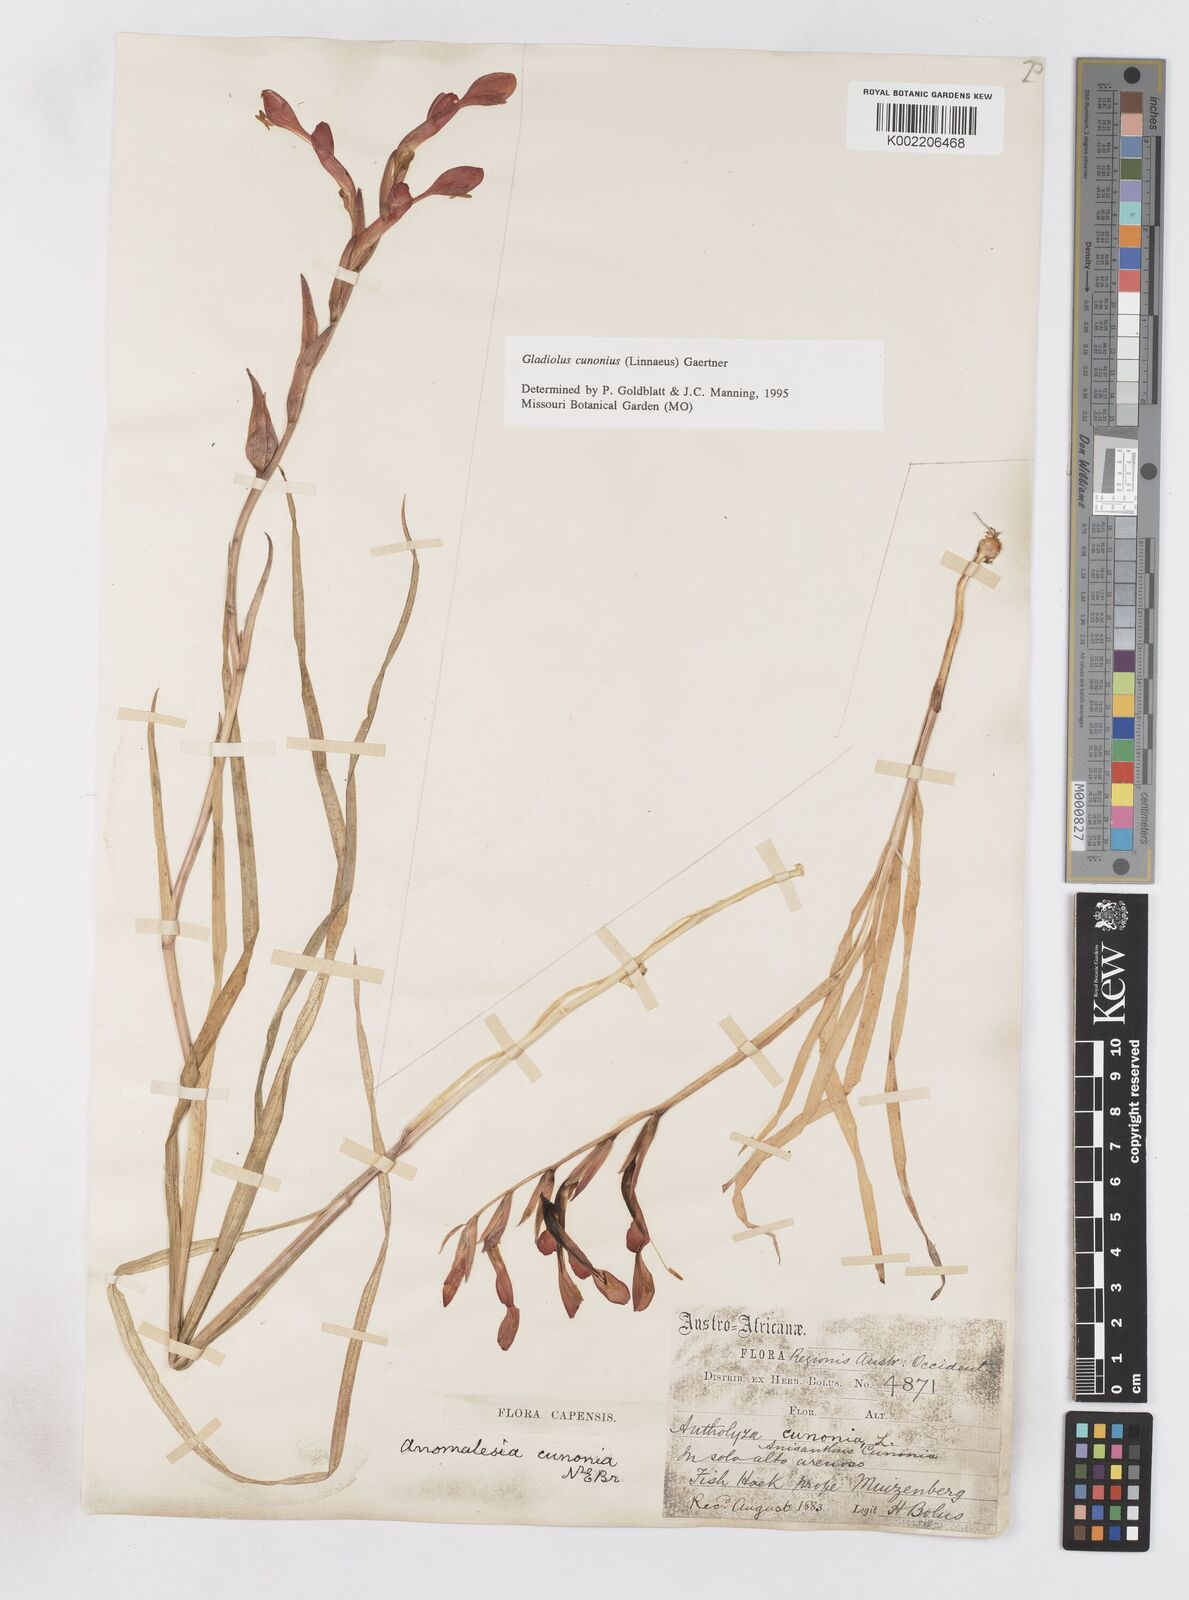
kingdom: Plantae
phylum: Tracheophyta
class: Liliopsida
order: Asparagales
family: Iridaceae
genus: Gladiolus
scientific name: Gladiolus cunonius
